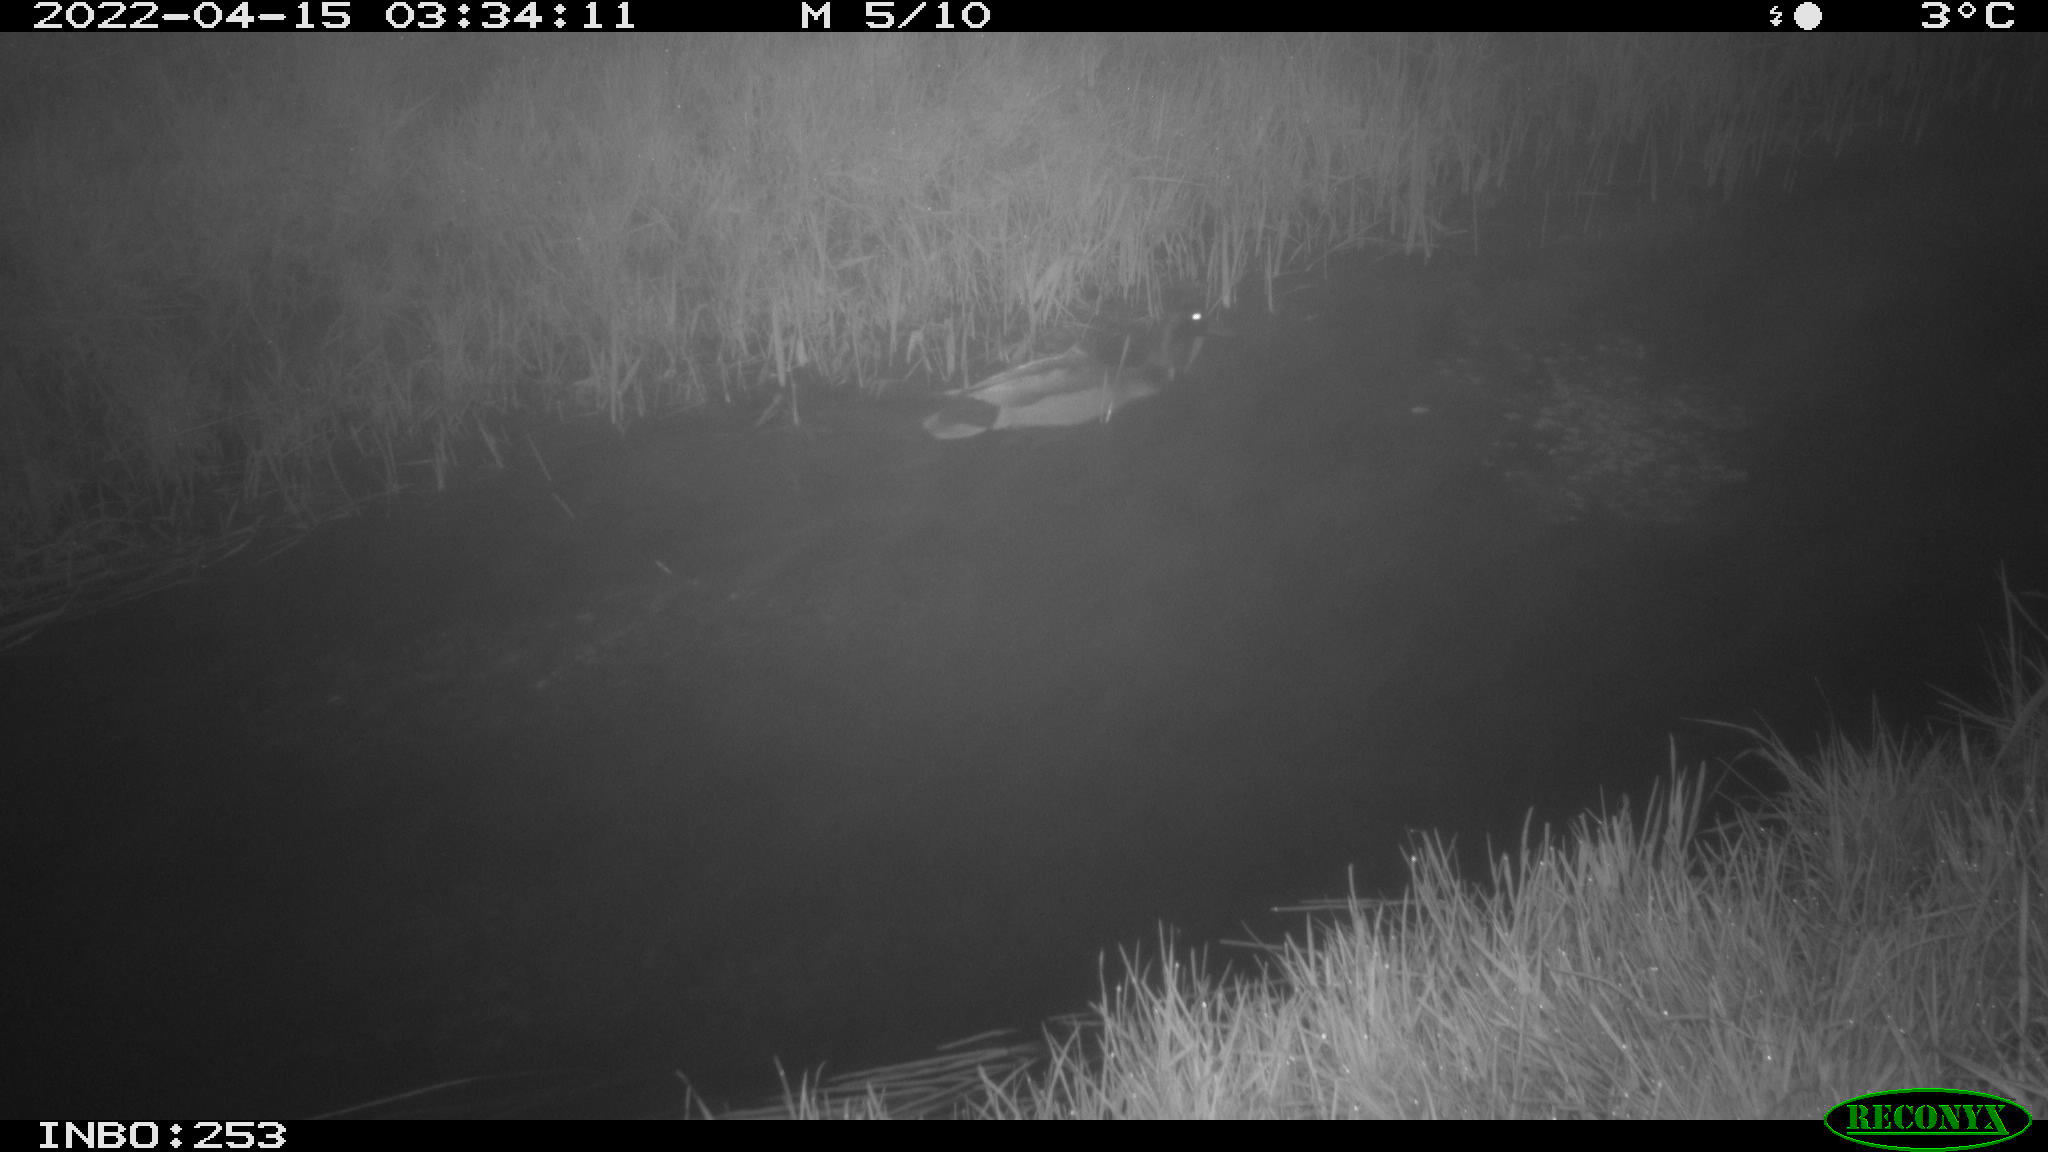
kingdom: Animalia
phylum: Chordata
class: Aves
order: Anseriformes
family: Anatidae
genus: Anas
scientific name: Anas platyrhynchos
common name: Mallard
